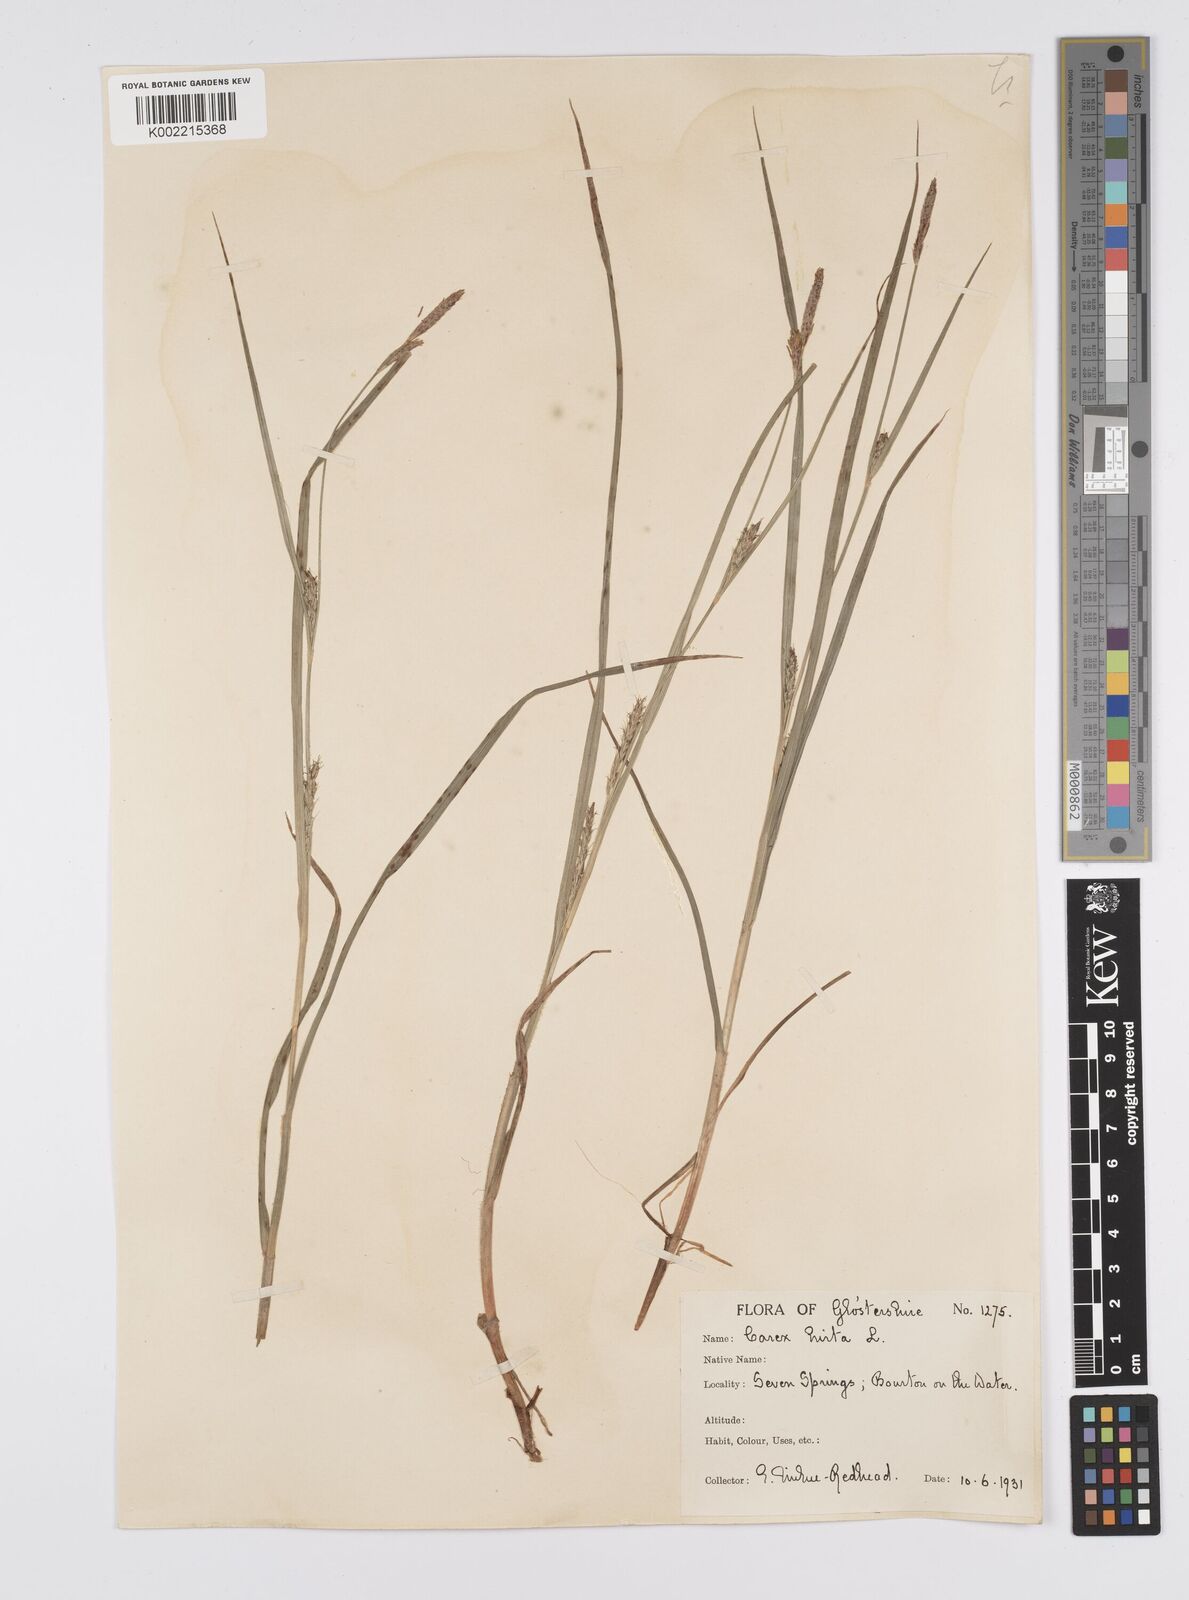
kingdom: Plantae
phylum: Tracheophyta
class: Liliopsida
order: Poales
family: Cyperaceae
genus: Carex
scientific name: Carex hirta
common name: Hairy sedge
